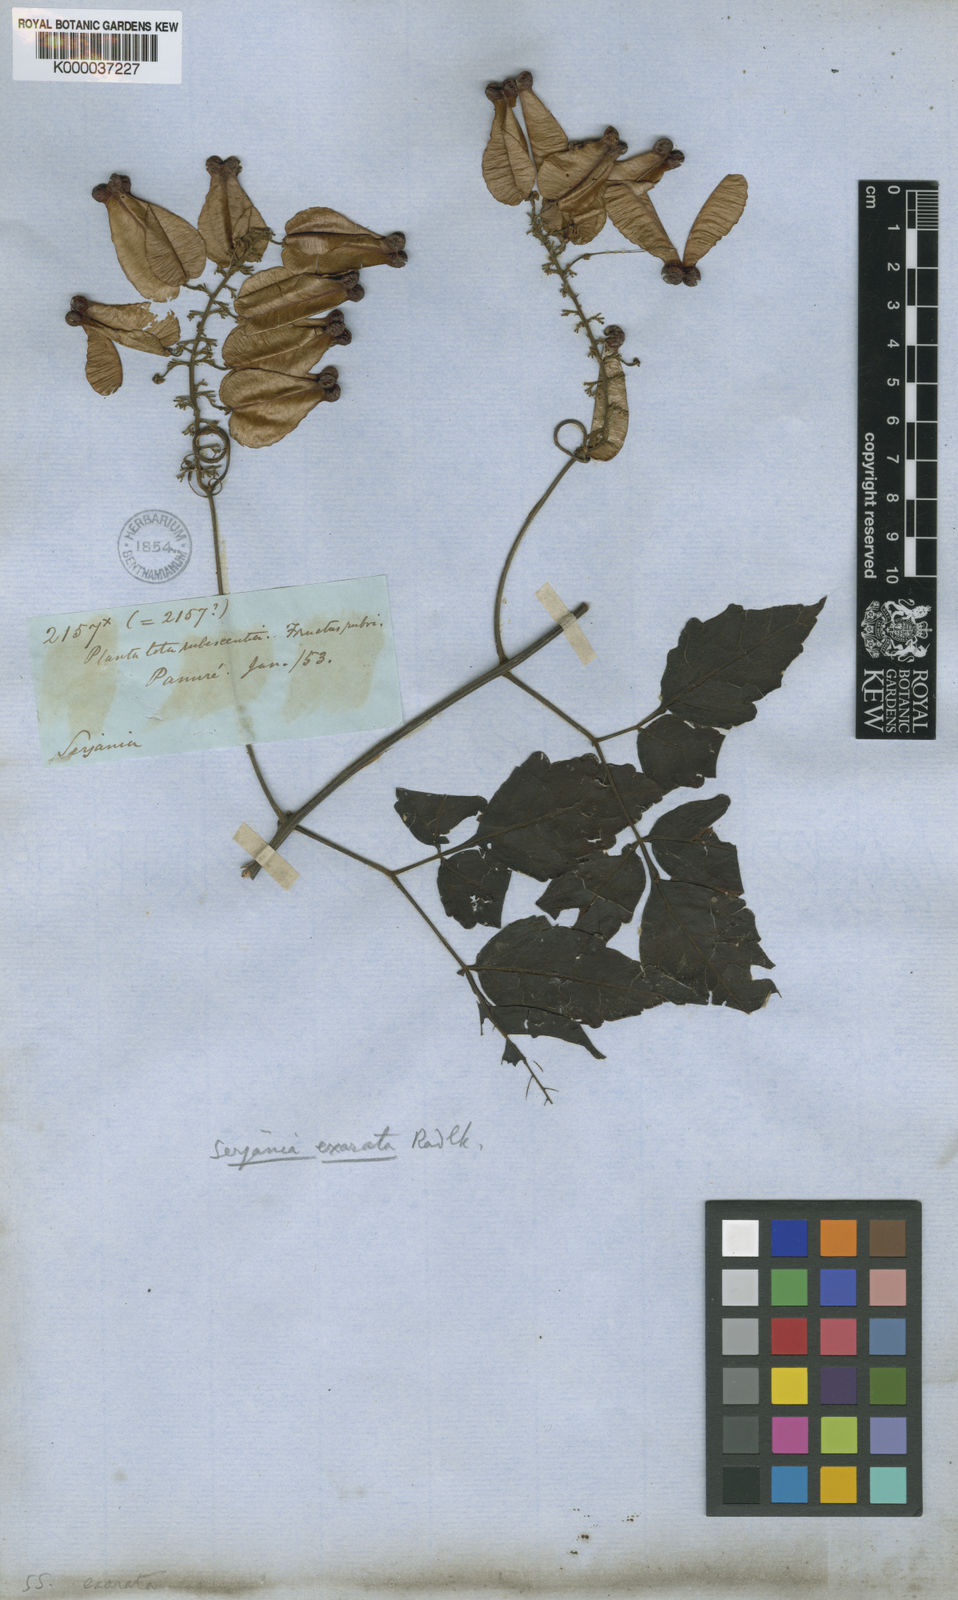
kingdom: Plantae
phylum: Tracheophyta
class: Magnoliopsida
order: Sapindales
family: Sapindaceae
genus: Serjania
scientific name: Serjania membranacea
